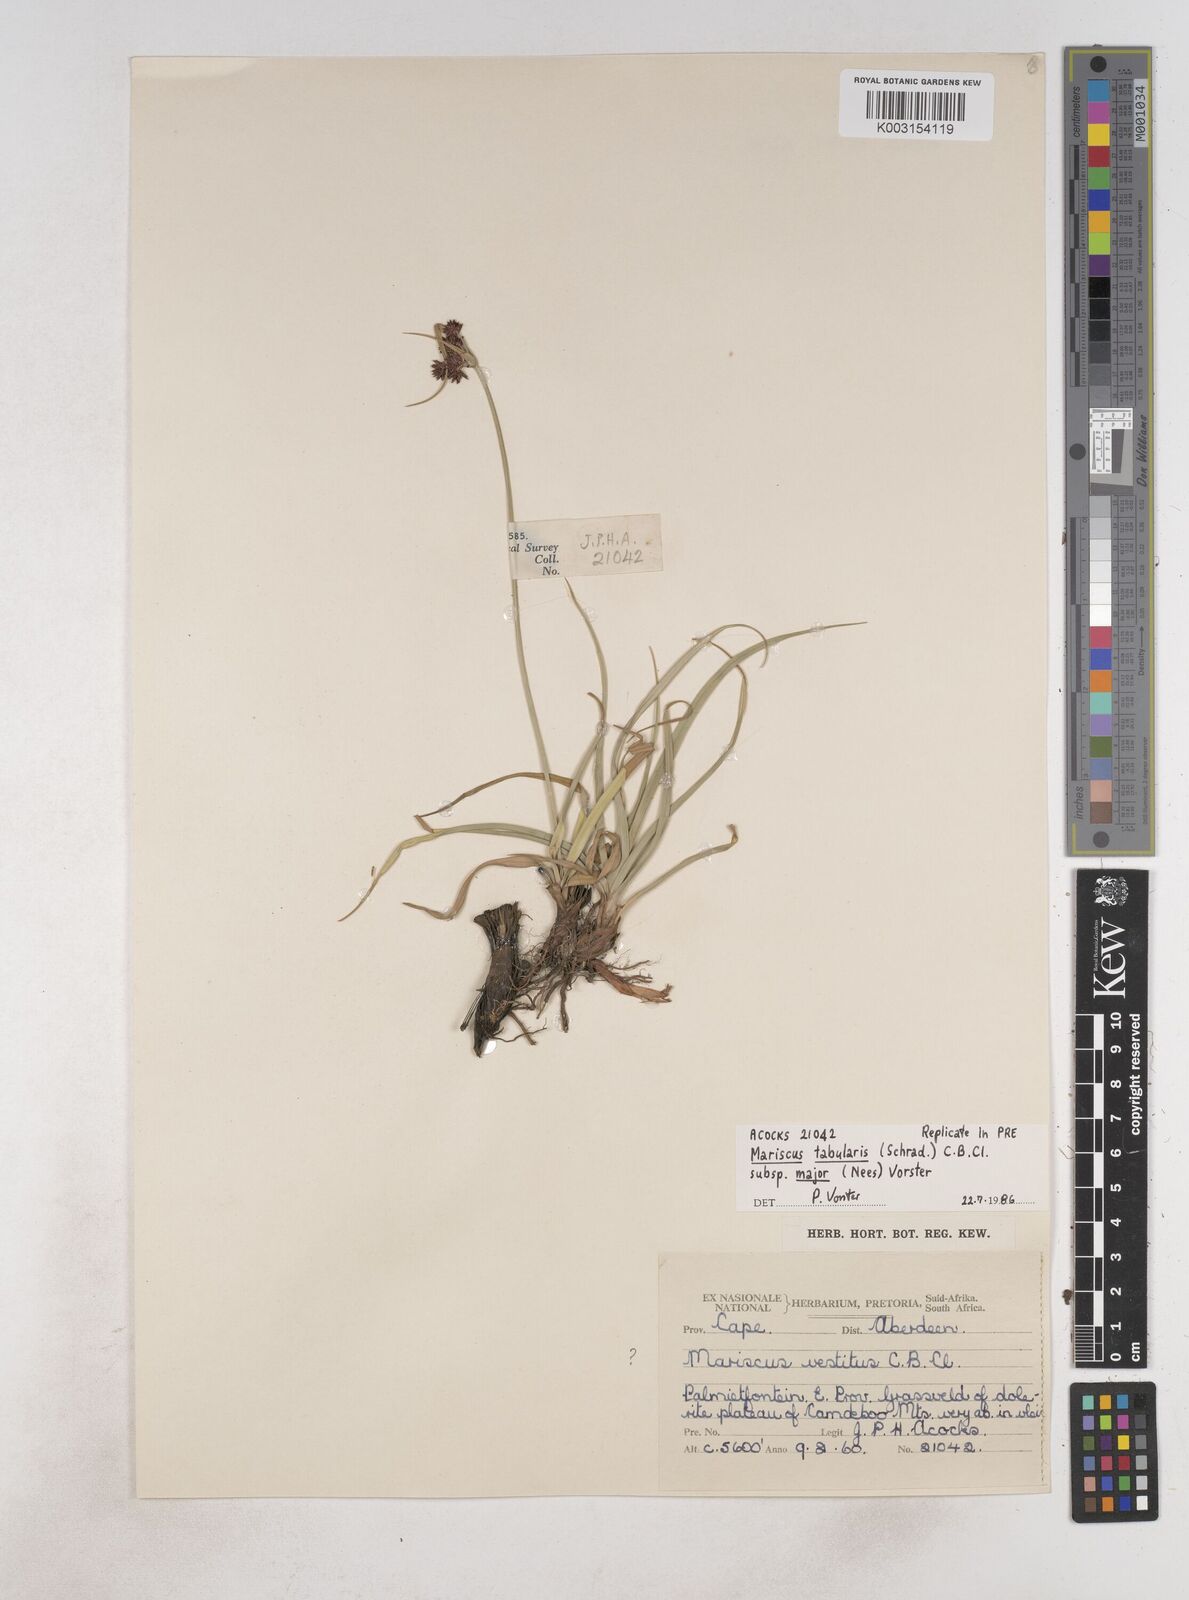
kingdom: Plantae
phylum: Tracheophyta
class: Liliopsida
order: Poales
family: Cyperaceae
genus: Cyperus
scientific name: Cyperus tabularis
